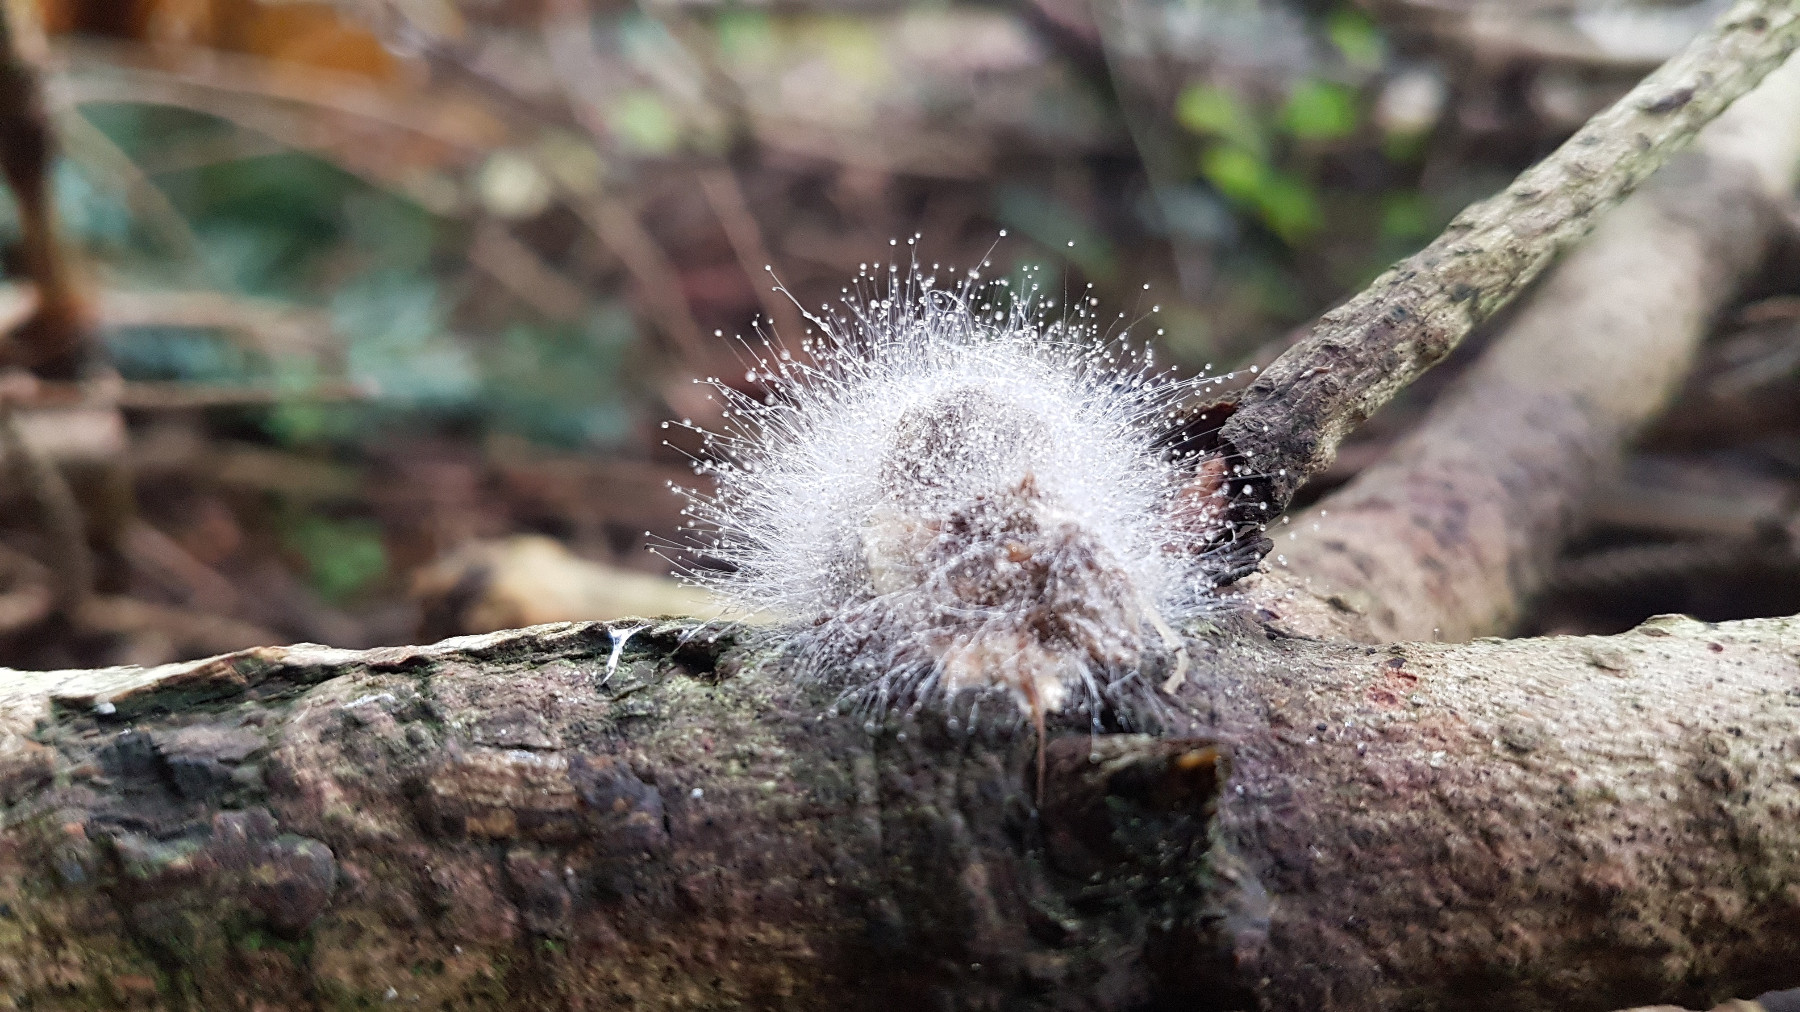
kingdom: Fungi
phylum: Mucoromycota
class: Mucoromycetes
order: Mucorales
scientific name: Mucorales
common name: mugordenen
